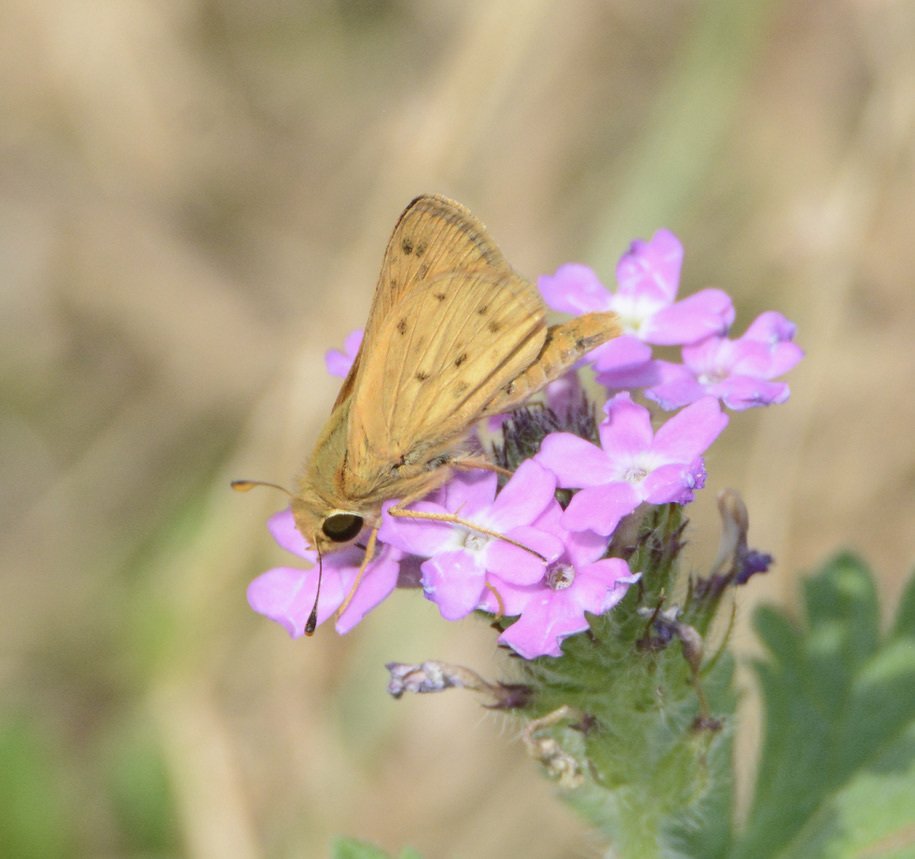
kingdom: Animalia
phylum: Arthropoda
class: Insecta
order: Lepidoptera
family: Hesperiidae
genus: Hylephila
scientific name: Hylephila phyleus
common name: Fiery Skipper
